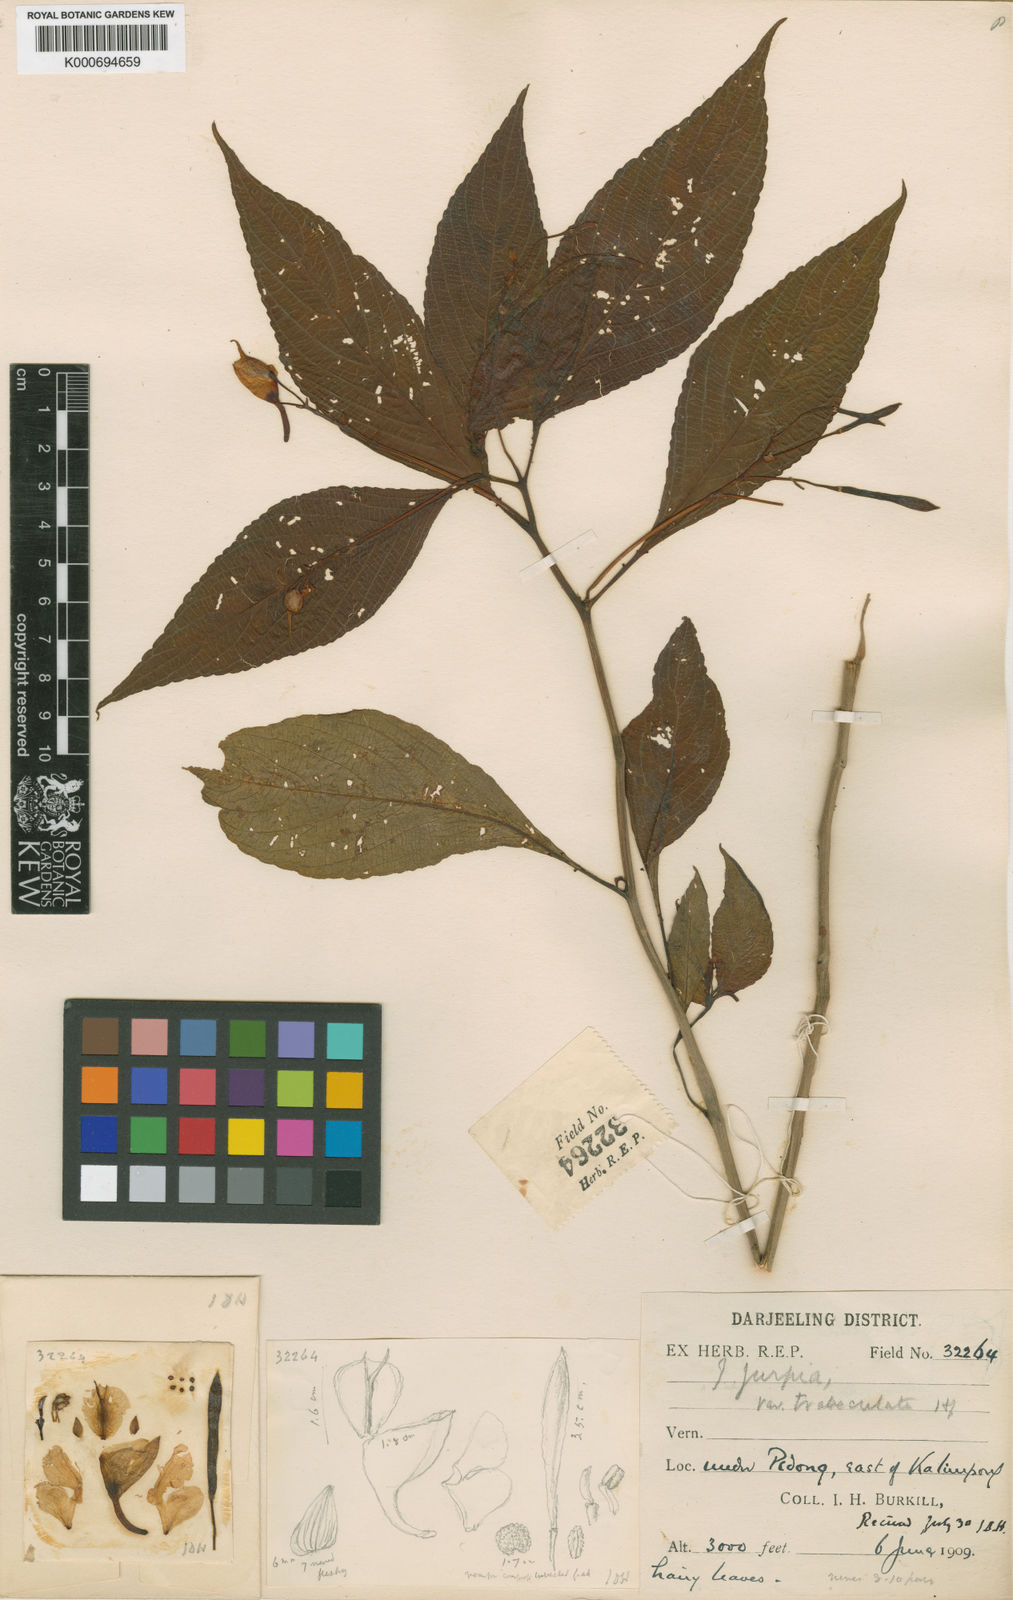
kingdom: Plantae
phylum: Tracheophyta
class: Magnoliopsida
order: Ericales
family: Balsaminaceae
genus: Impatiens
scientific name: Impatiens
